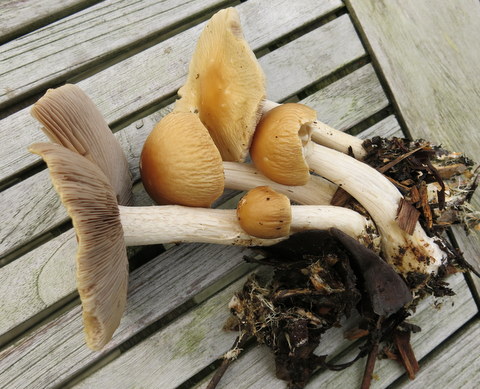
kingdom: Fungi
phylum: Basidiomycota
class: Agaricomycetes
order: Agaricales
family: Strophariaceae
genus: Agrocybe
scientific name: Agrocybe rivulosa
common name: året agerhat
